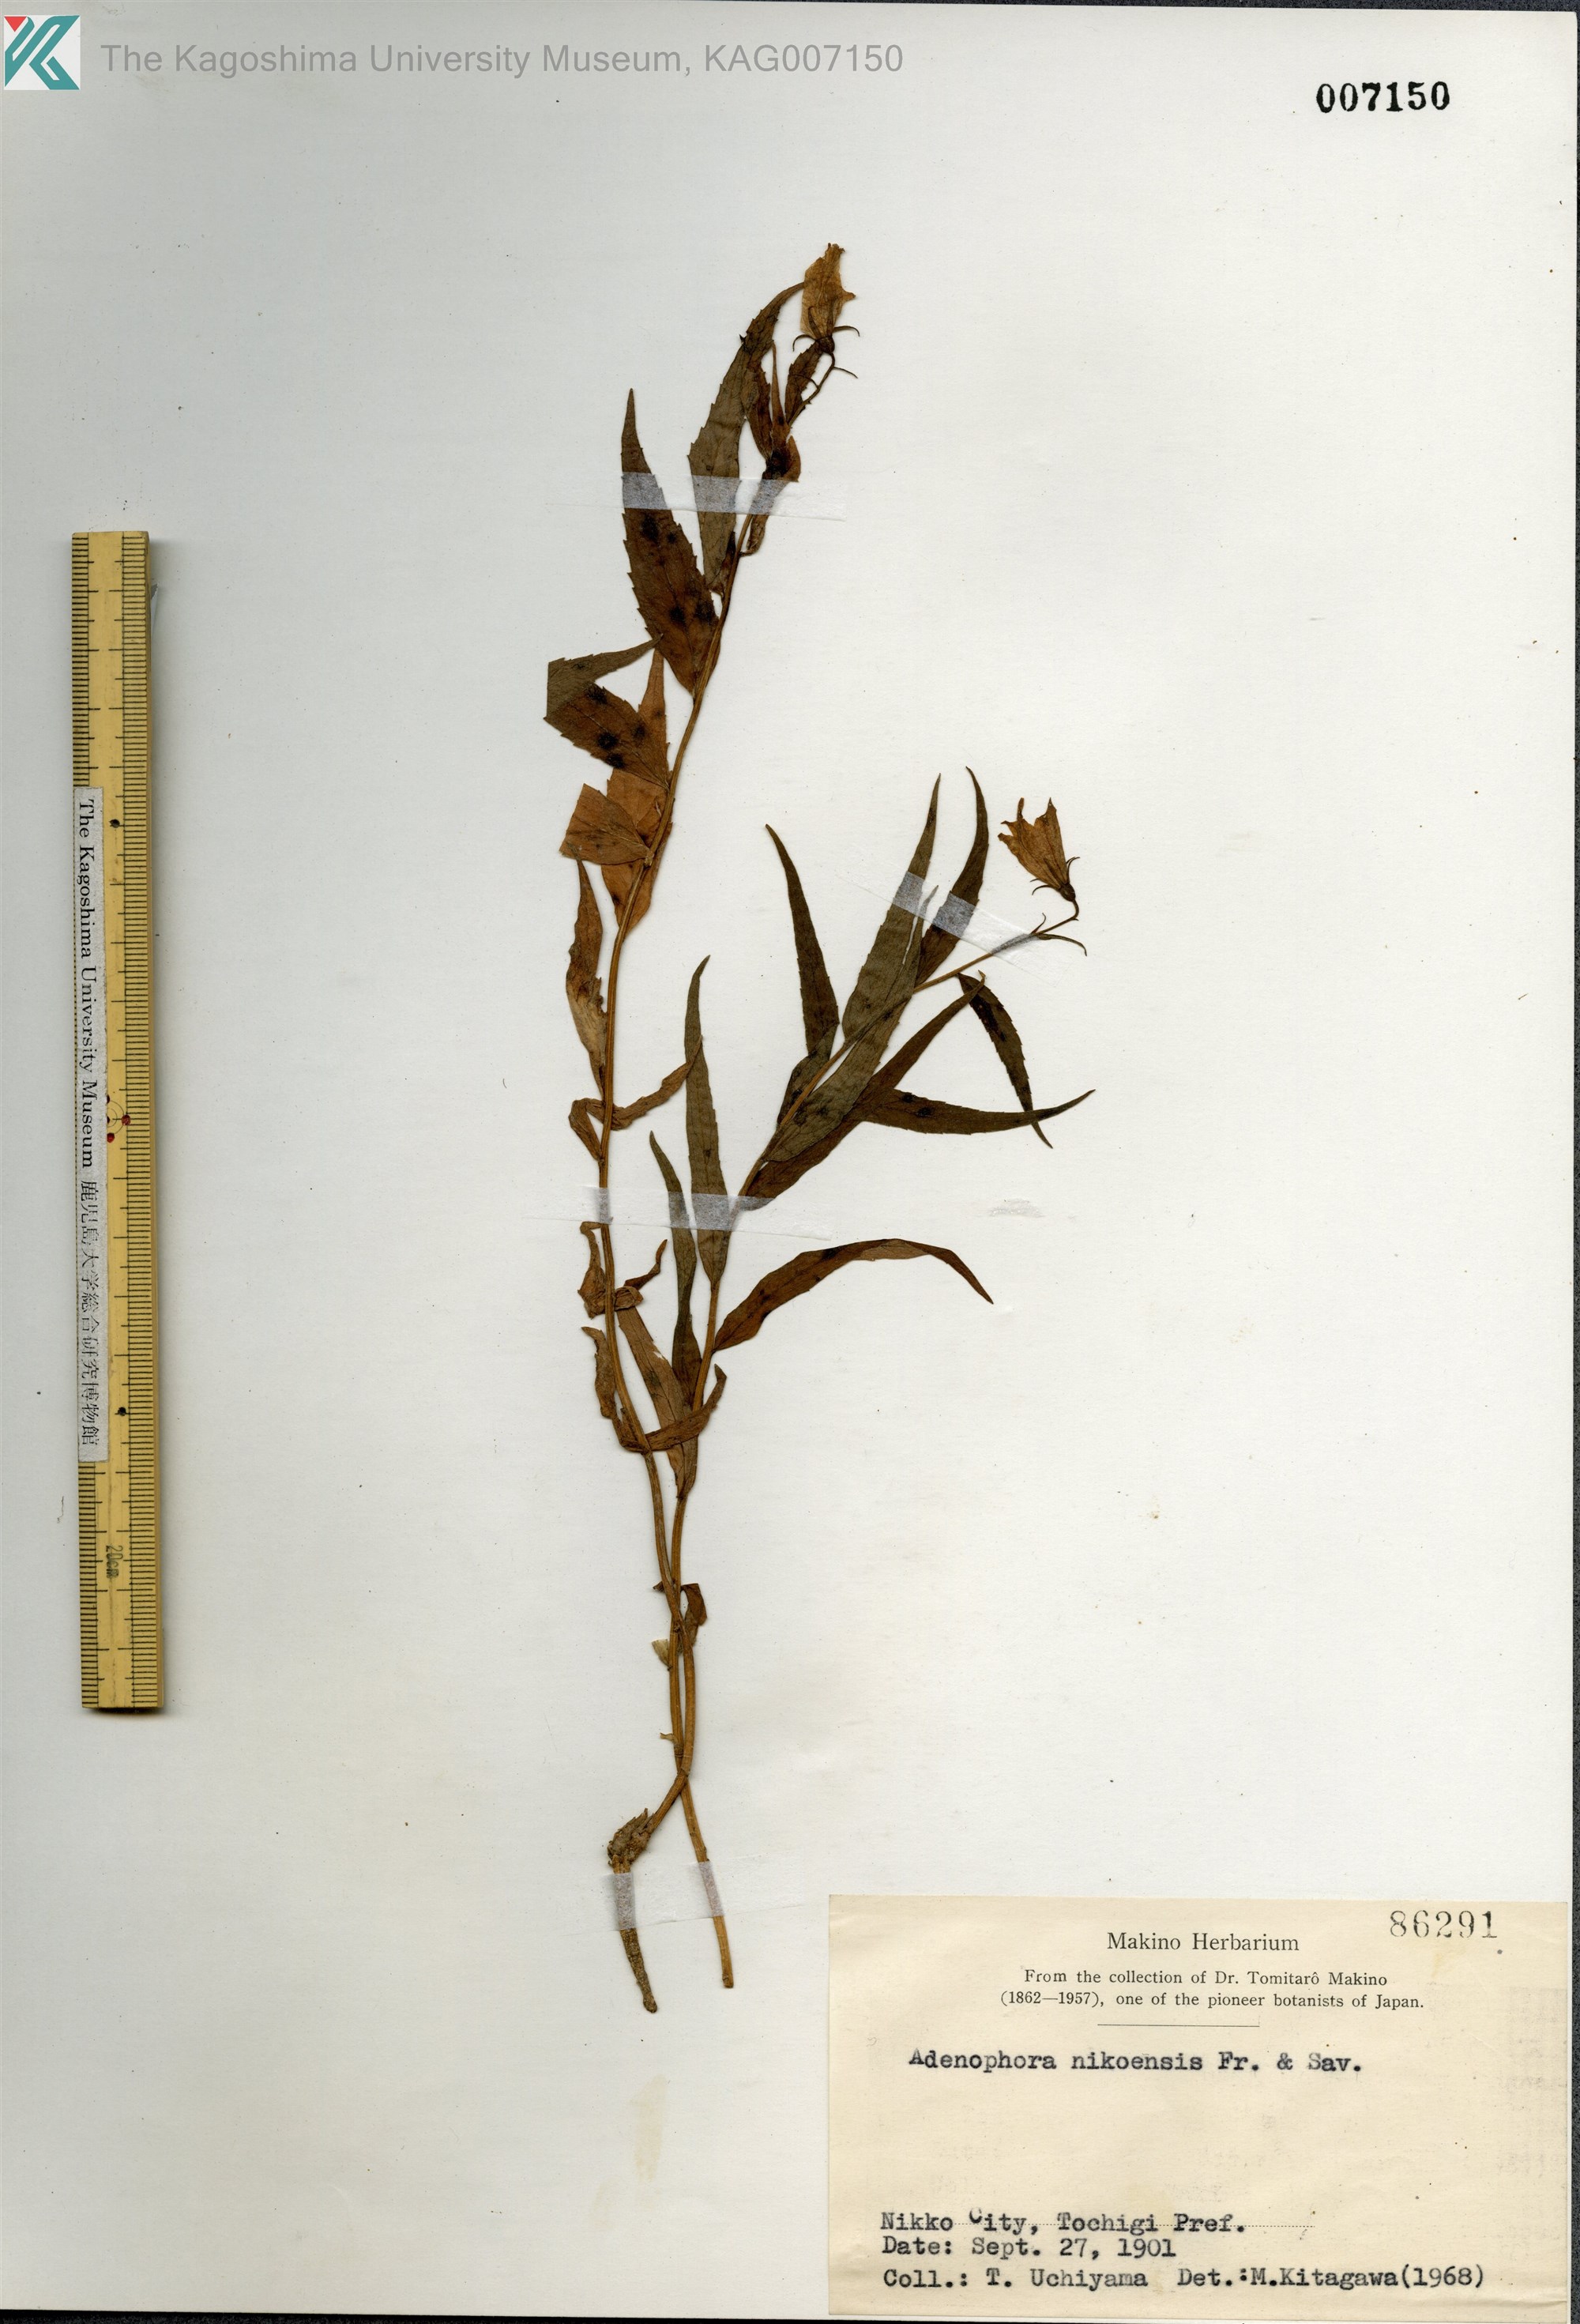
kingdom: Plantae
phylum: Tracheophyta
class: Magnoliopsida
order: Asterales
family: Campanulaceae
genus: Adenophora
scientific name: Adenophora nikoensis
